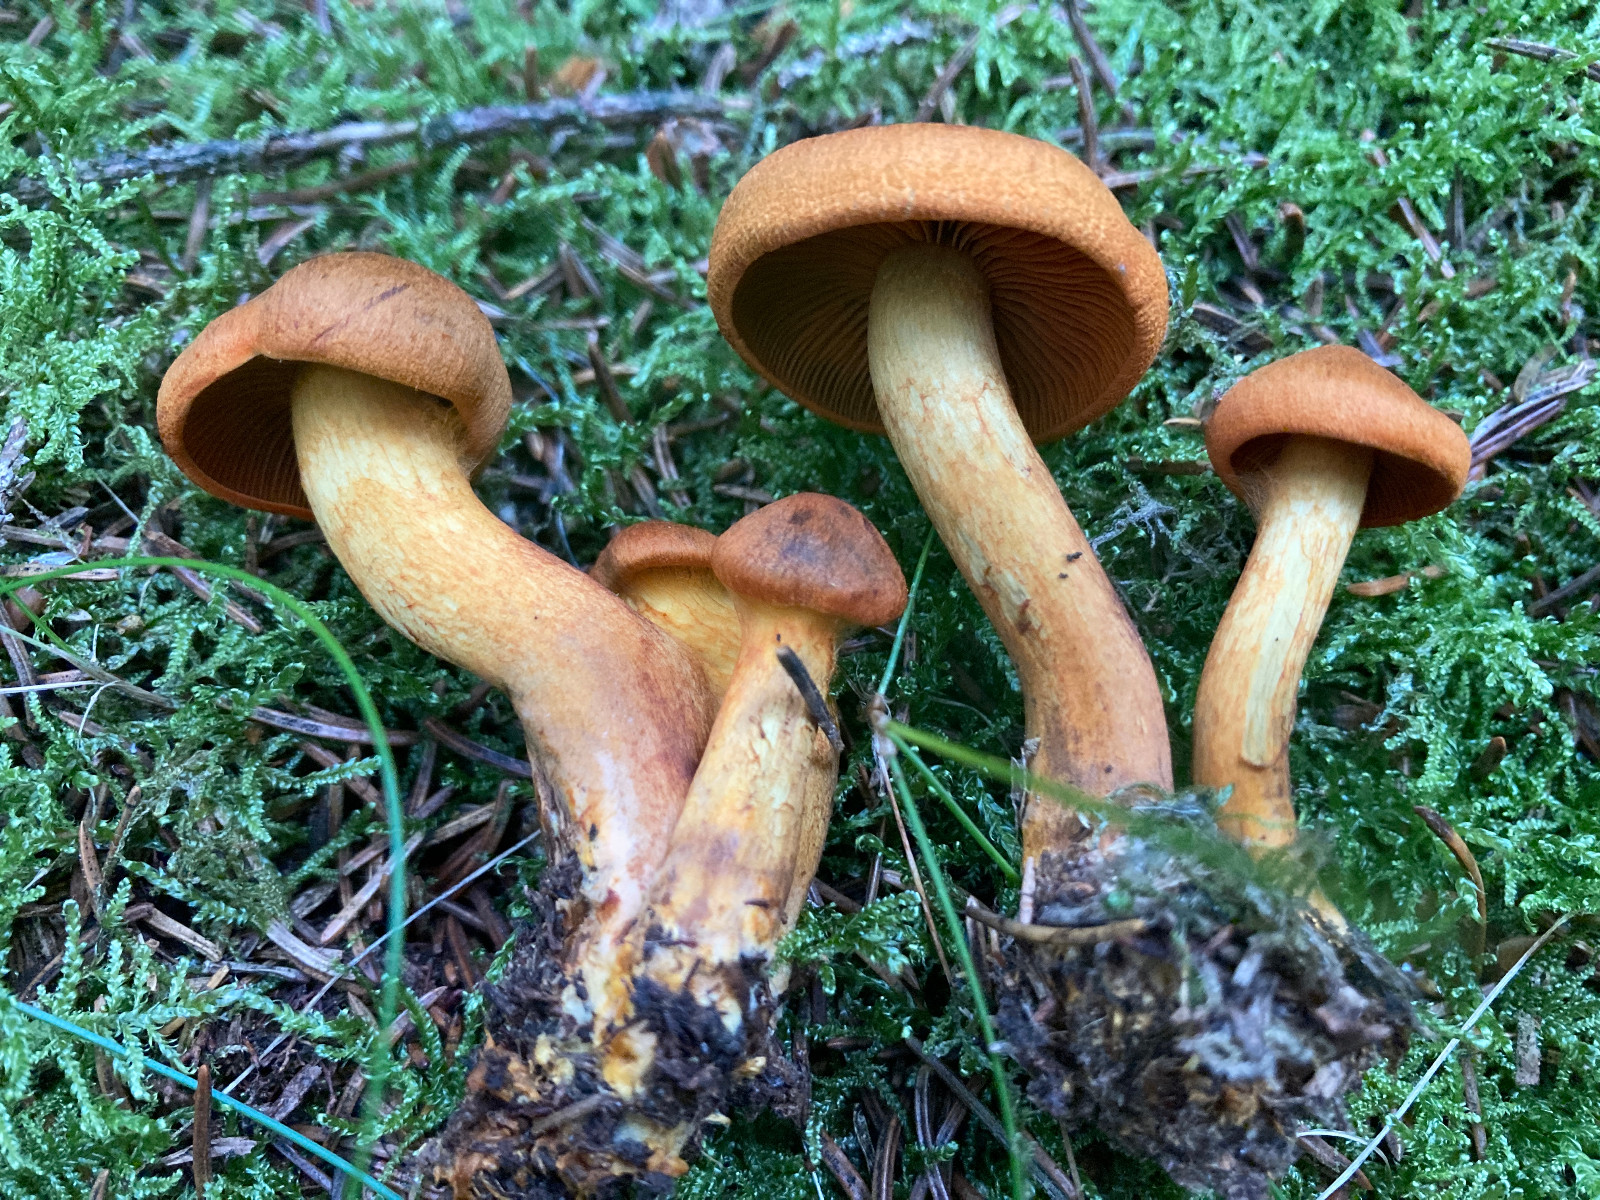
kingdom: Fungi
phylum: Basidiomycota
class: Agaricomycetes
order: Agaricales
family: Cortinariaceae
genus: Cortinarius
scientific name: Cortinarius malicorius
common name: grønkødet slørhat
